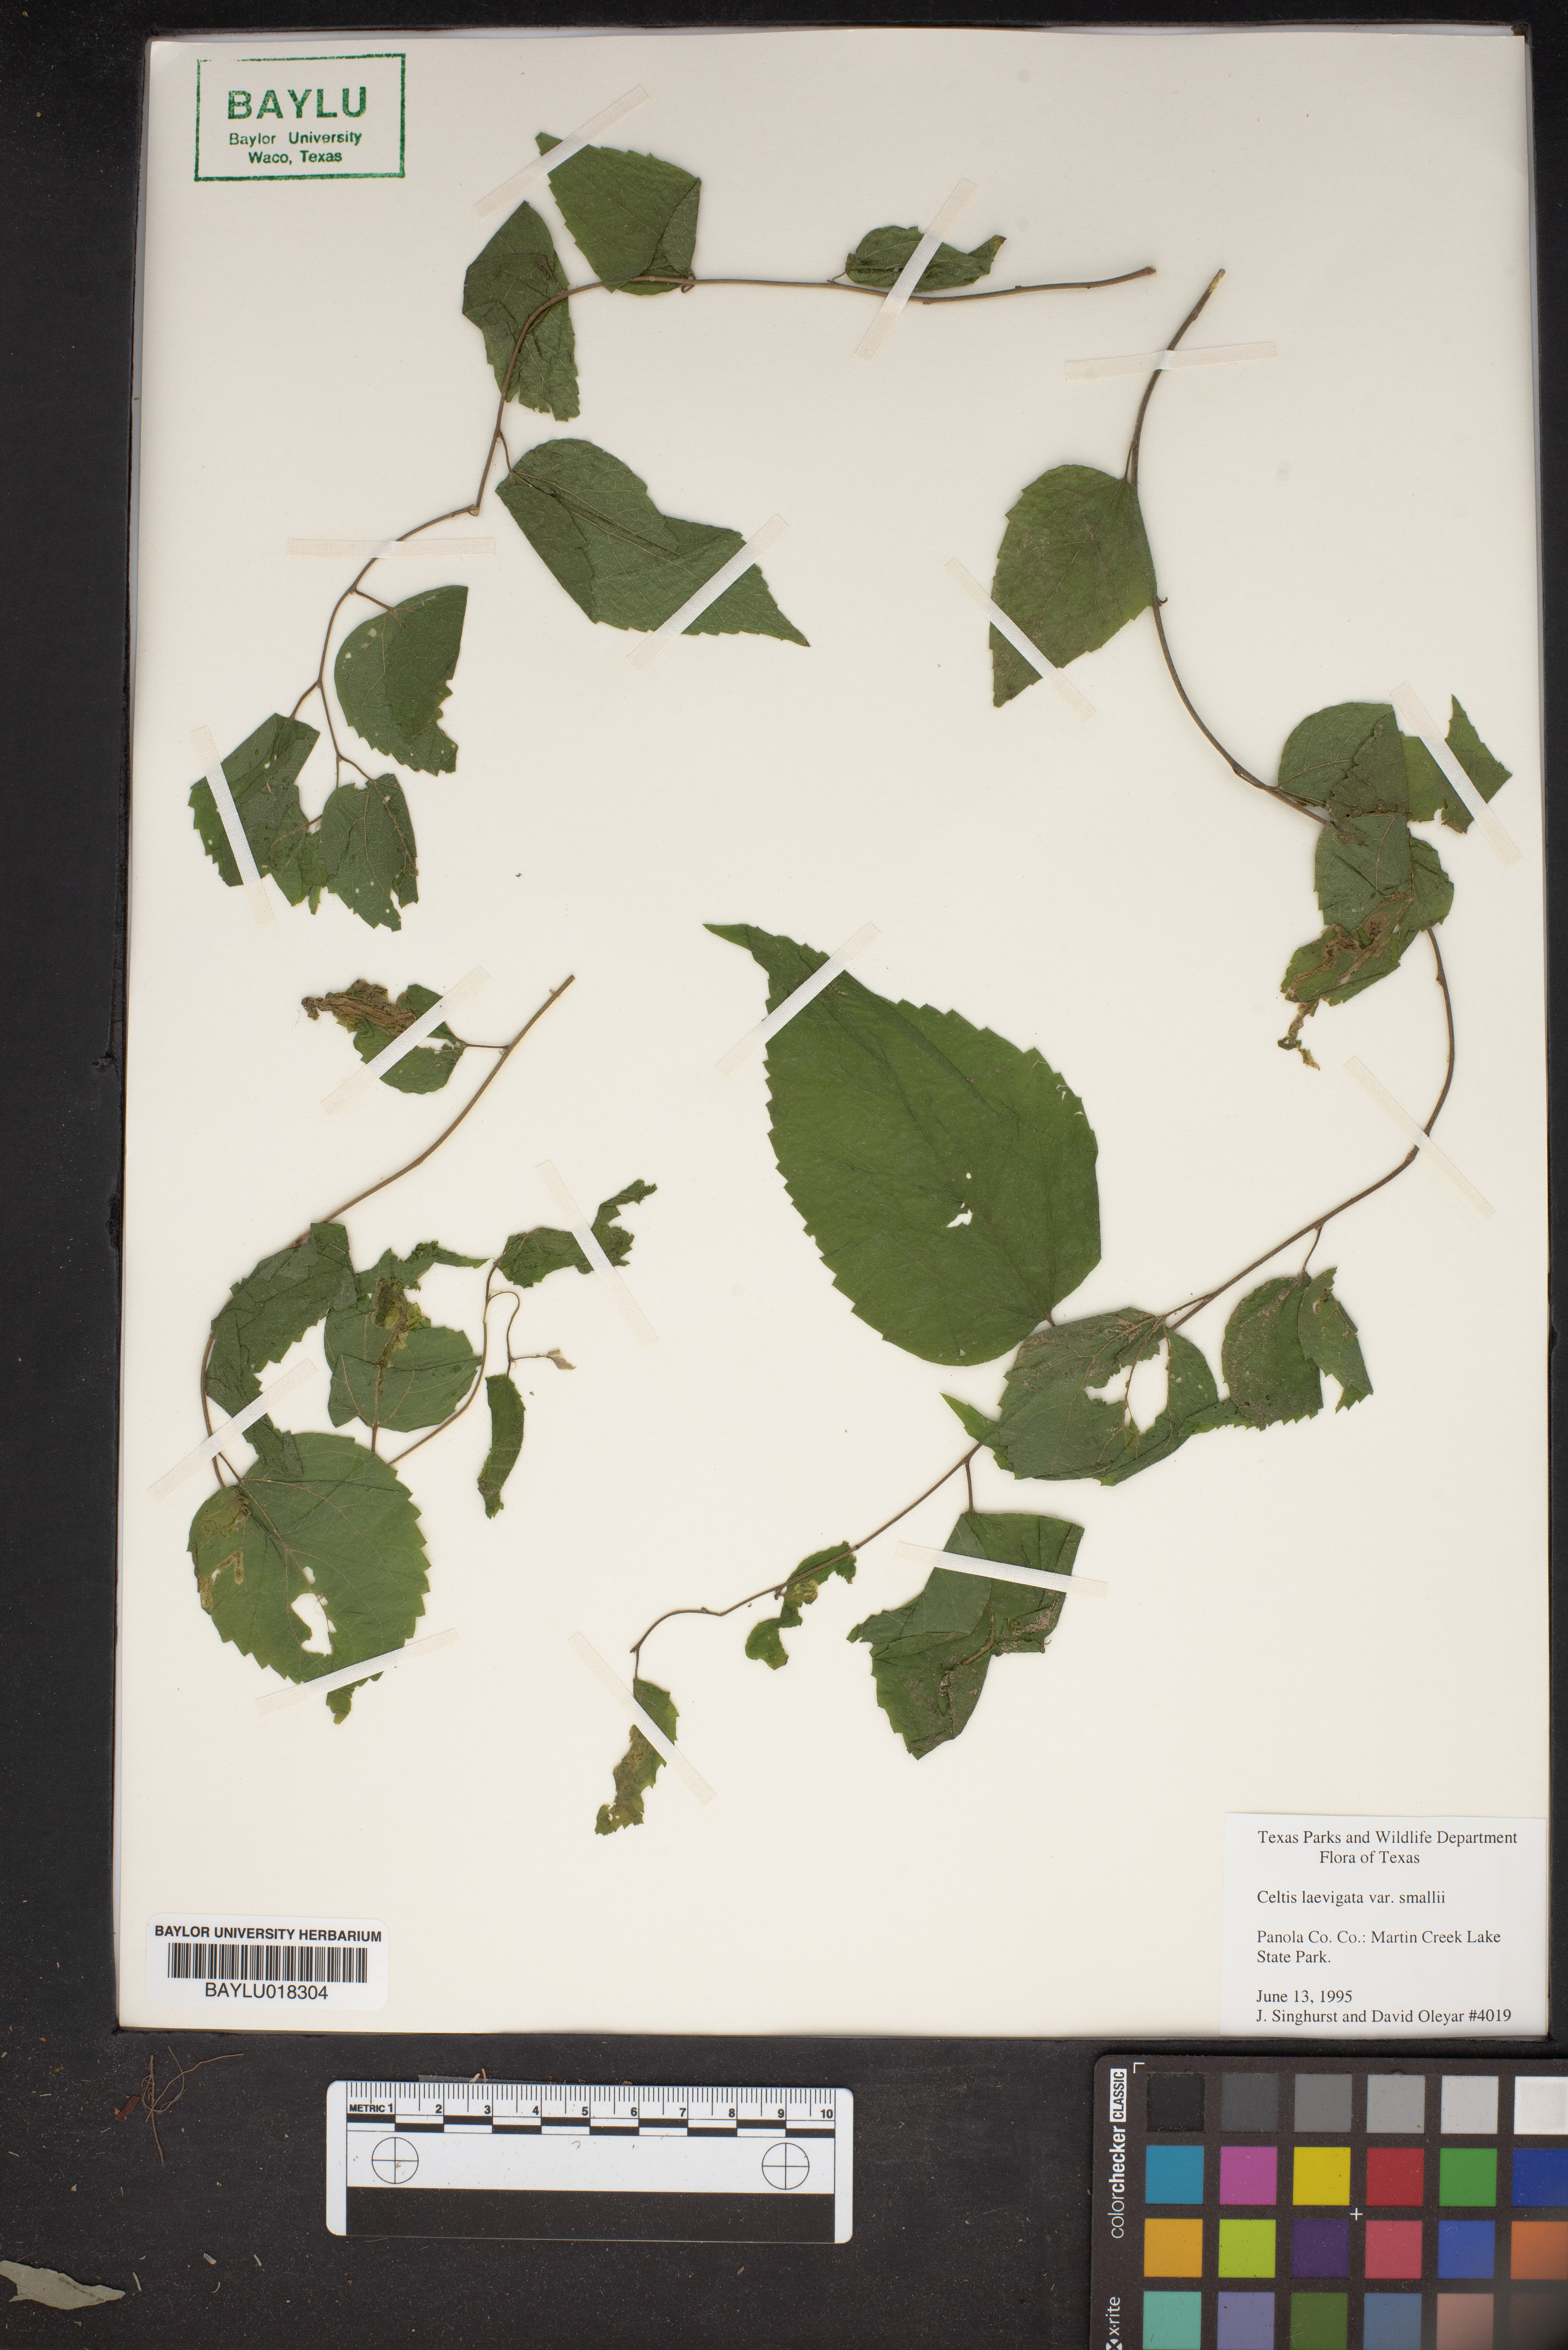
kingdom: Plantae
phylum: Tracheophyta
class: Magnoliopsida
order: Rosales
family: Cannabaceae
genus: Celtis
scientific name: Celtis
